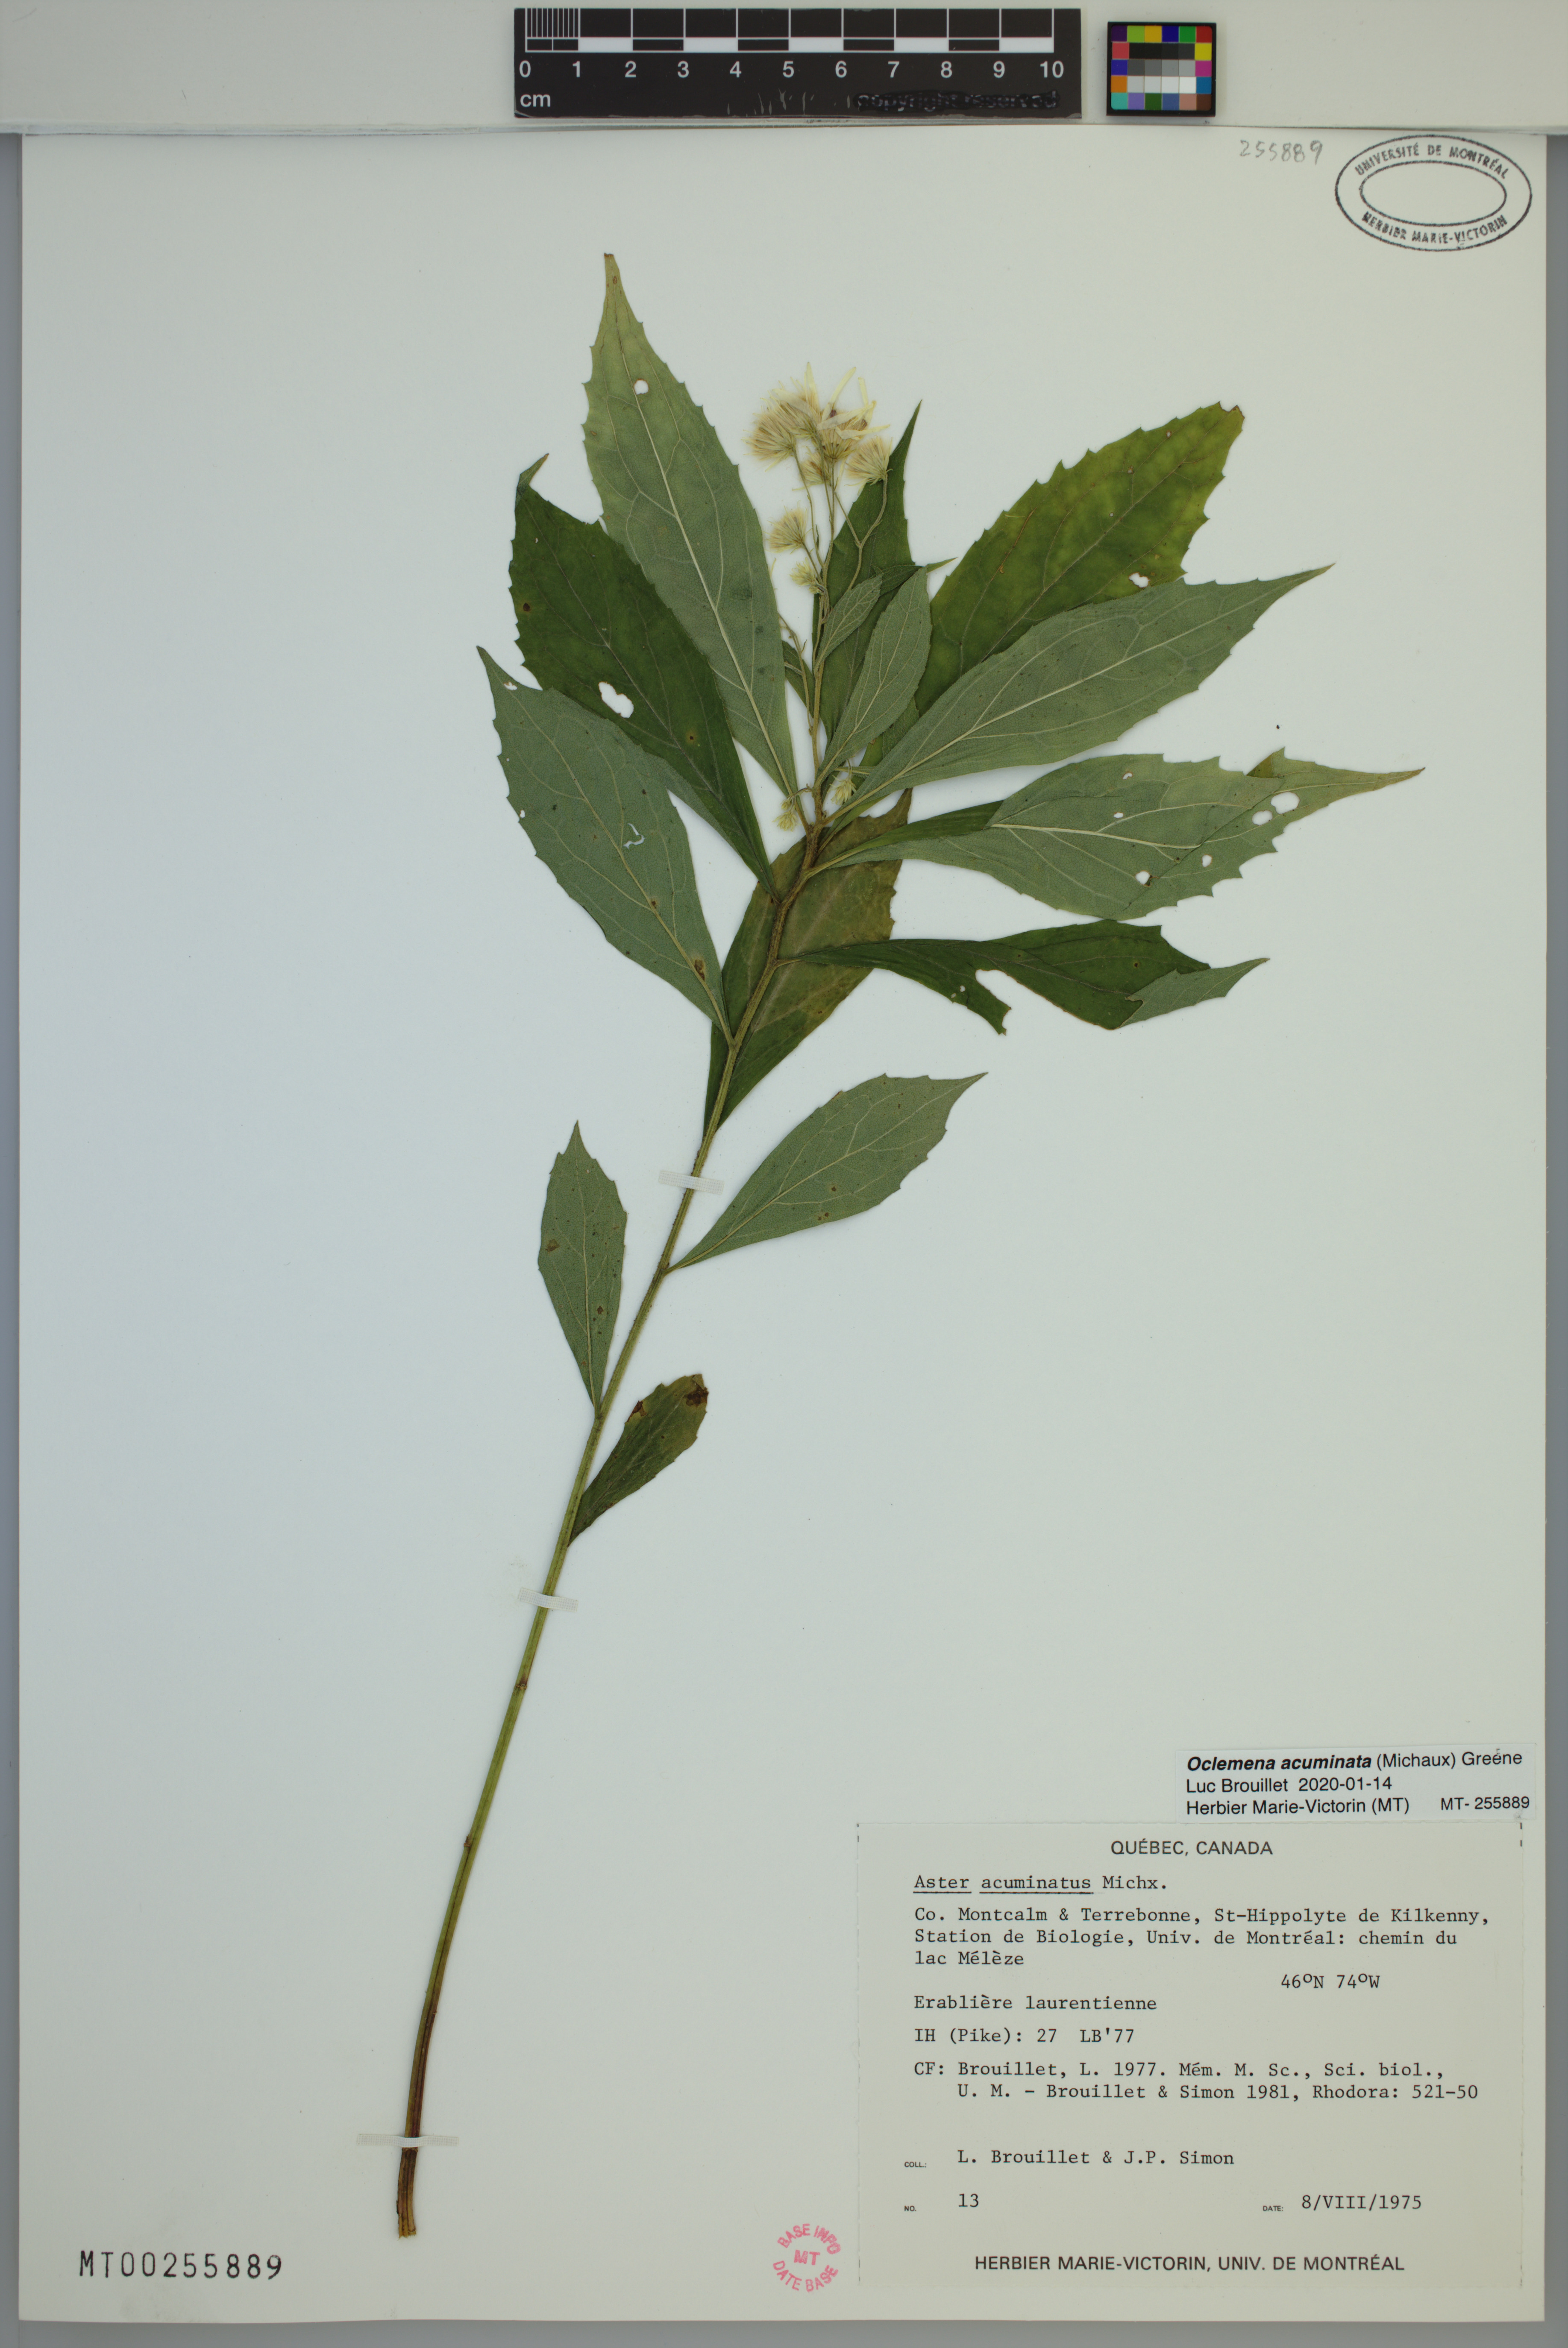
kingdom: Plantae
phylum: Tracheophyta
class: Magnoliopsida
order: Asterales
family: Asteraceae
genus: Oclemena
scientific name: Oclemena acuminata
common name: Mountain aster
